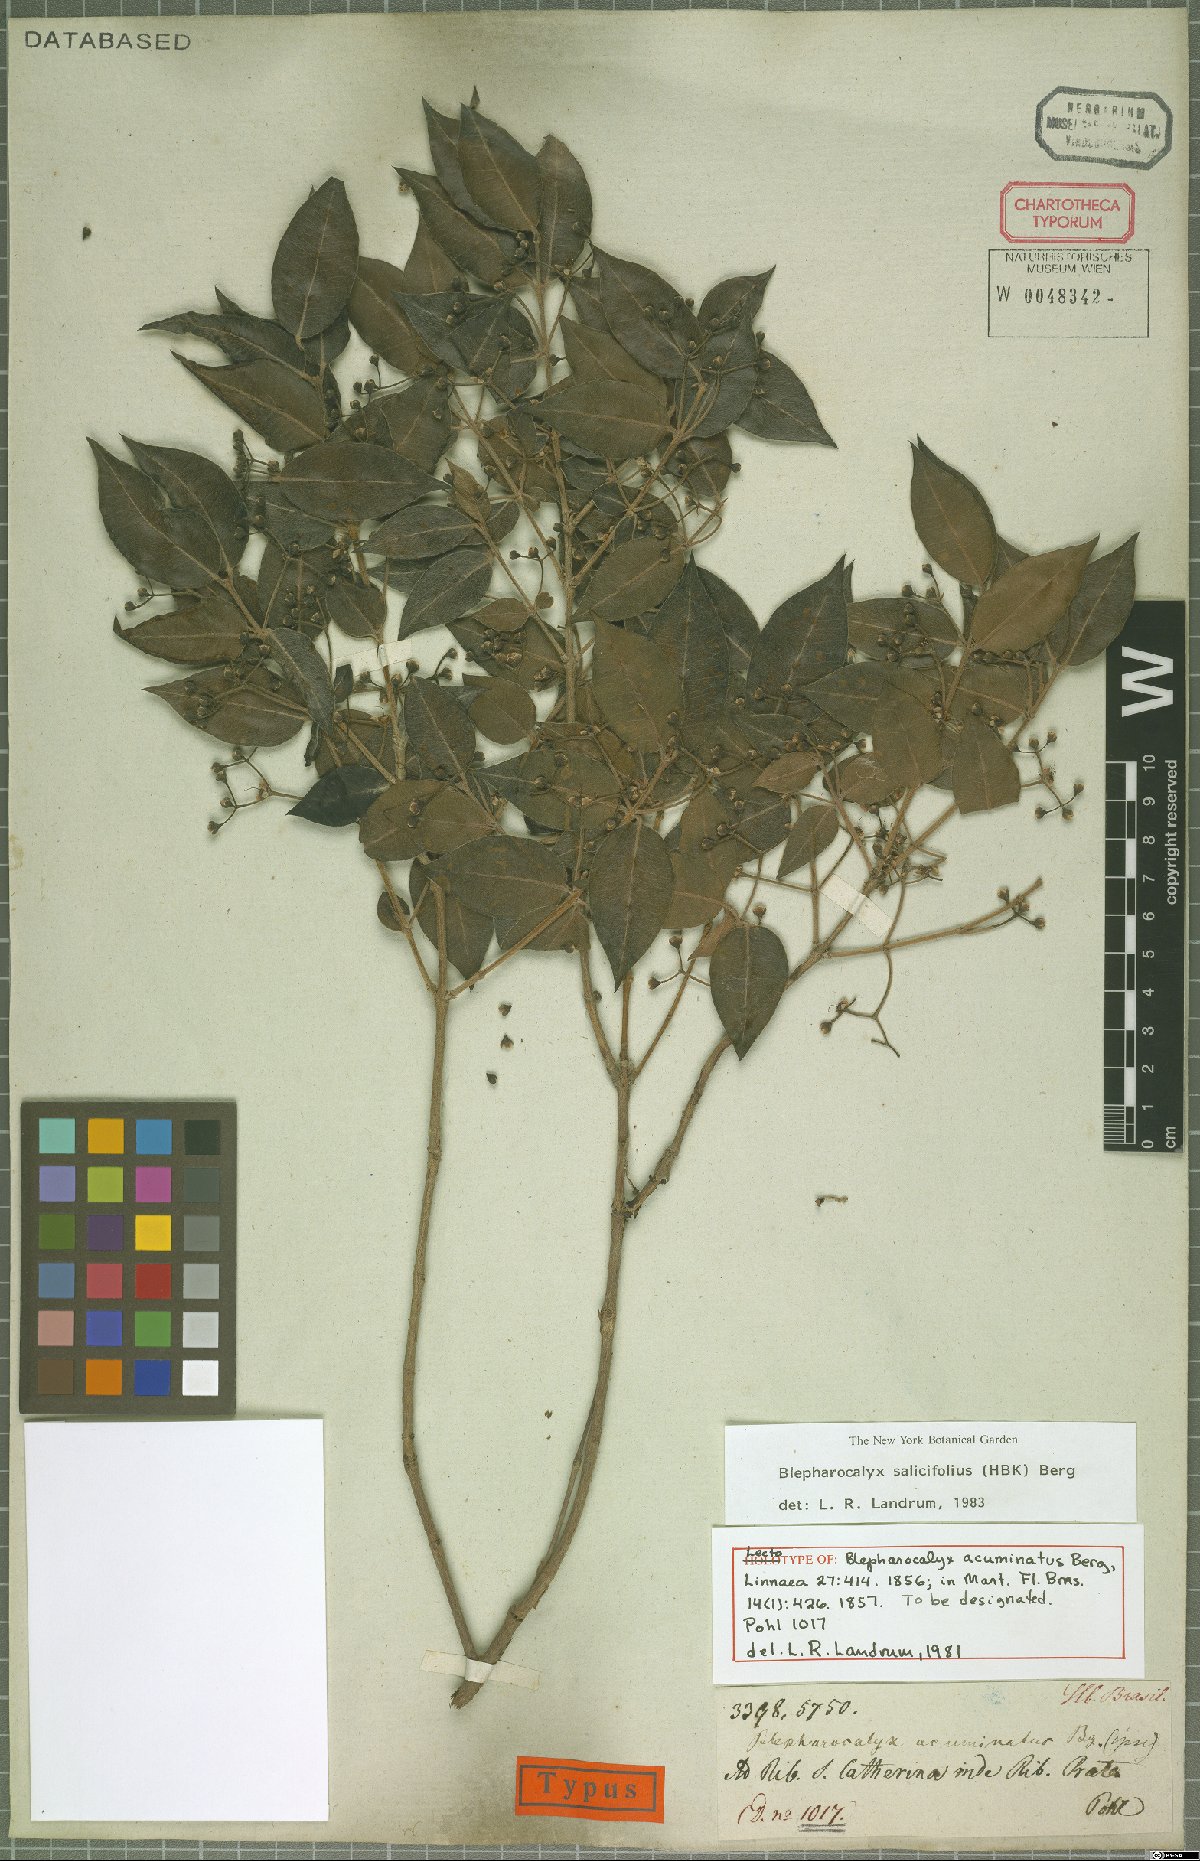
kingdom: Plantae
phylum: Tracheophyta
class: Magnoliopsida
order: Myrtales
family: Myrtaceae
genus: Blepharocalyx
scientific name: Blepharocalyx salicifolius
